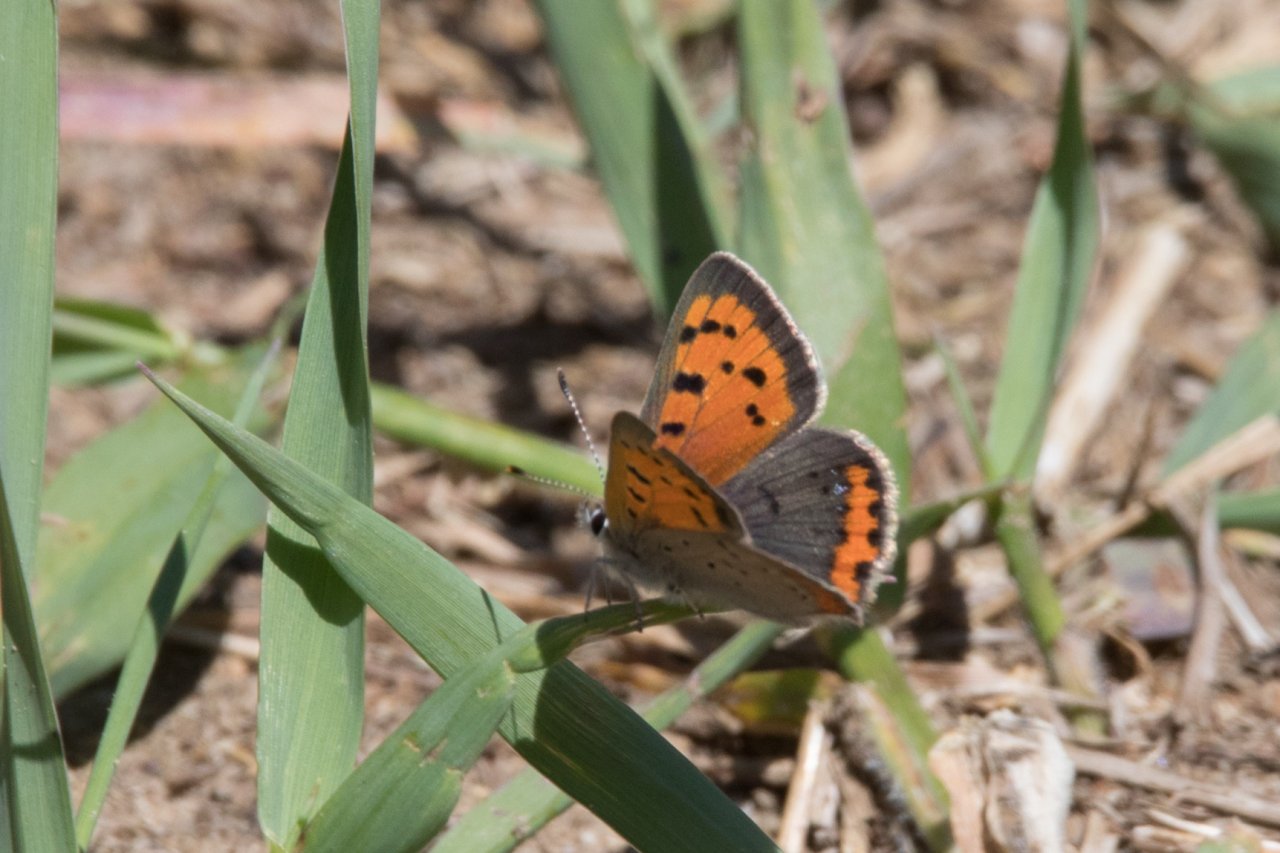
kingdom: Animalia
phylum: Arthropoda
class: Insecta
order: Lepidoptera
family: Lycaenidae
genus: Lycaena
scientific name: Lycaena phlaeas
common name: American Copper
